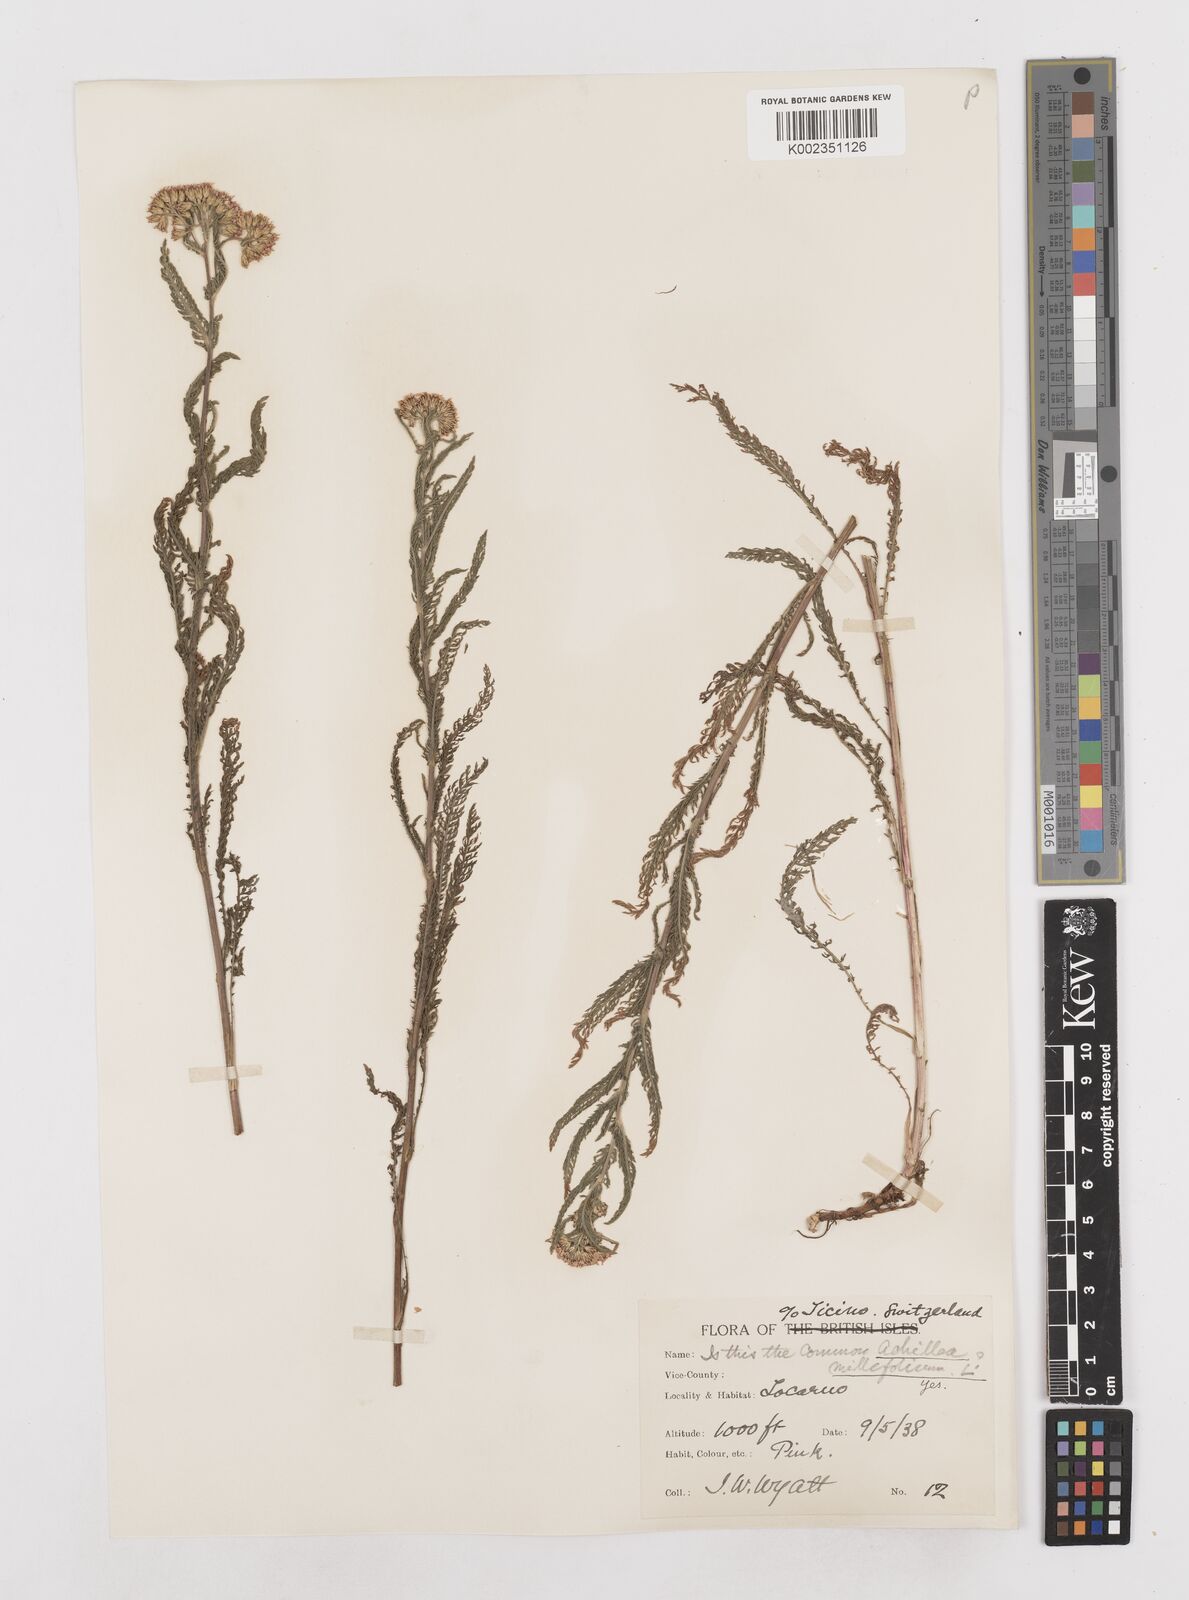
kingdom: Plantae
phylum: Tracheophyta
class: Magnoliopsida
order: Asterales
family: Asteraceae
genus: Achillea
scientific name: Achillea millefolium
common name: Yarrow
